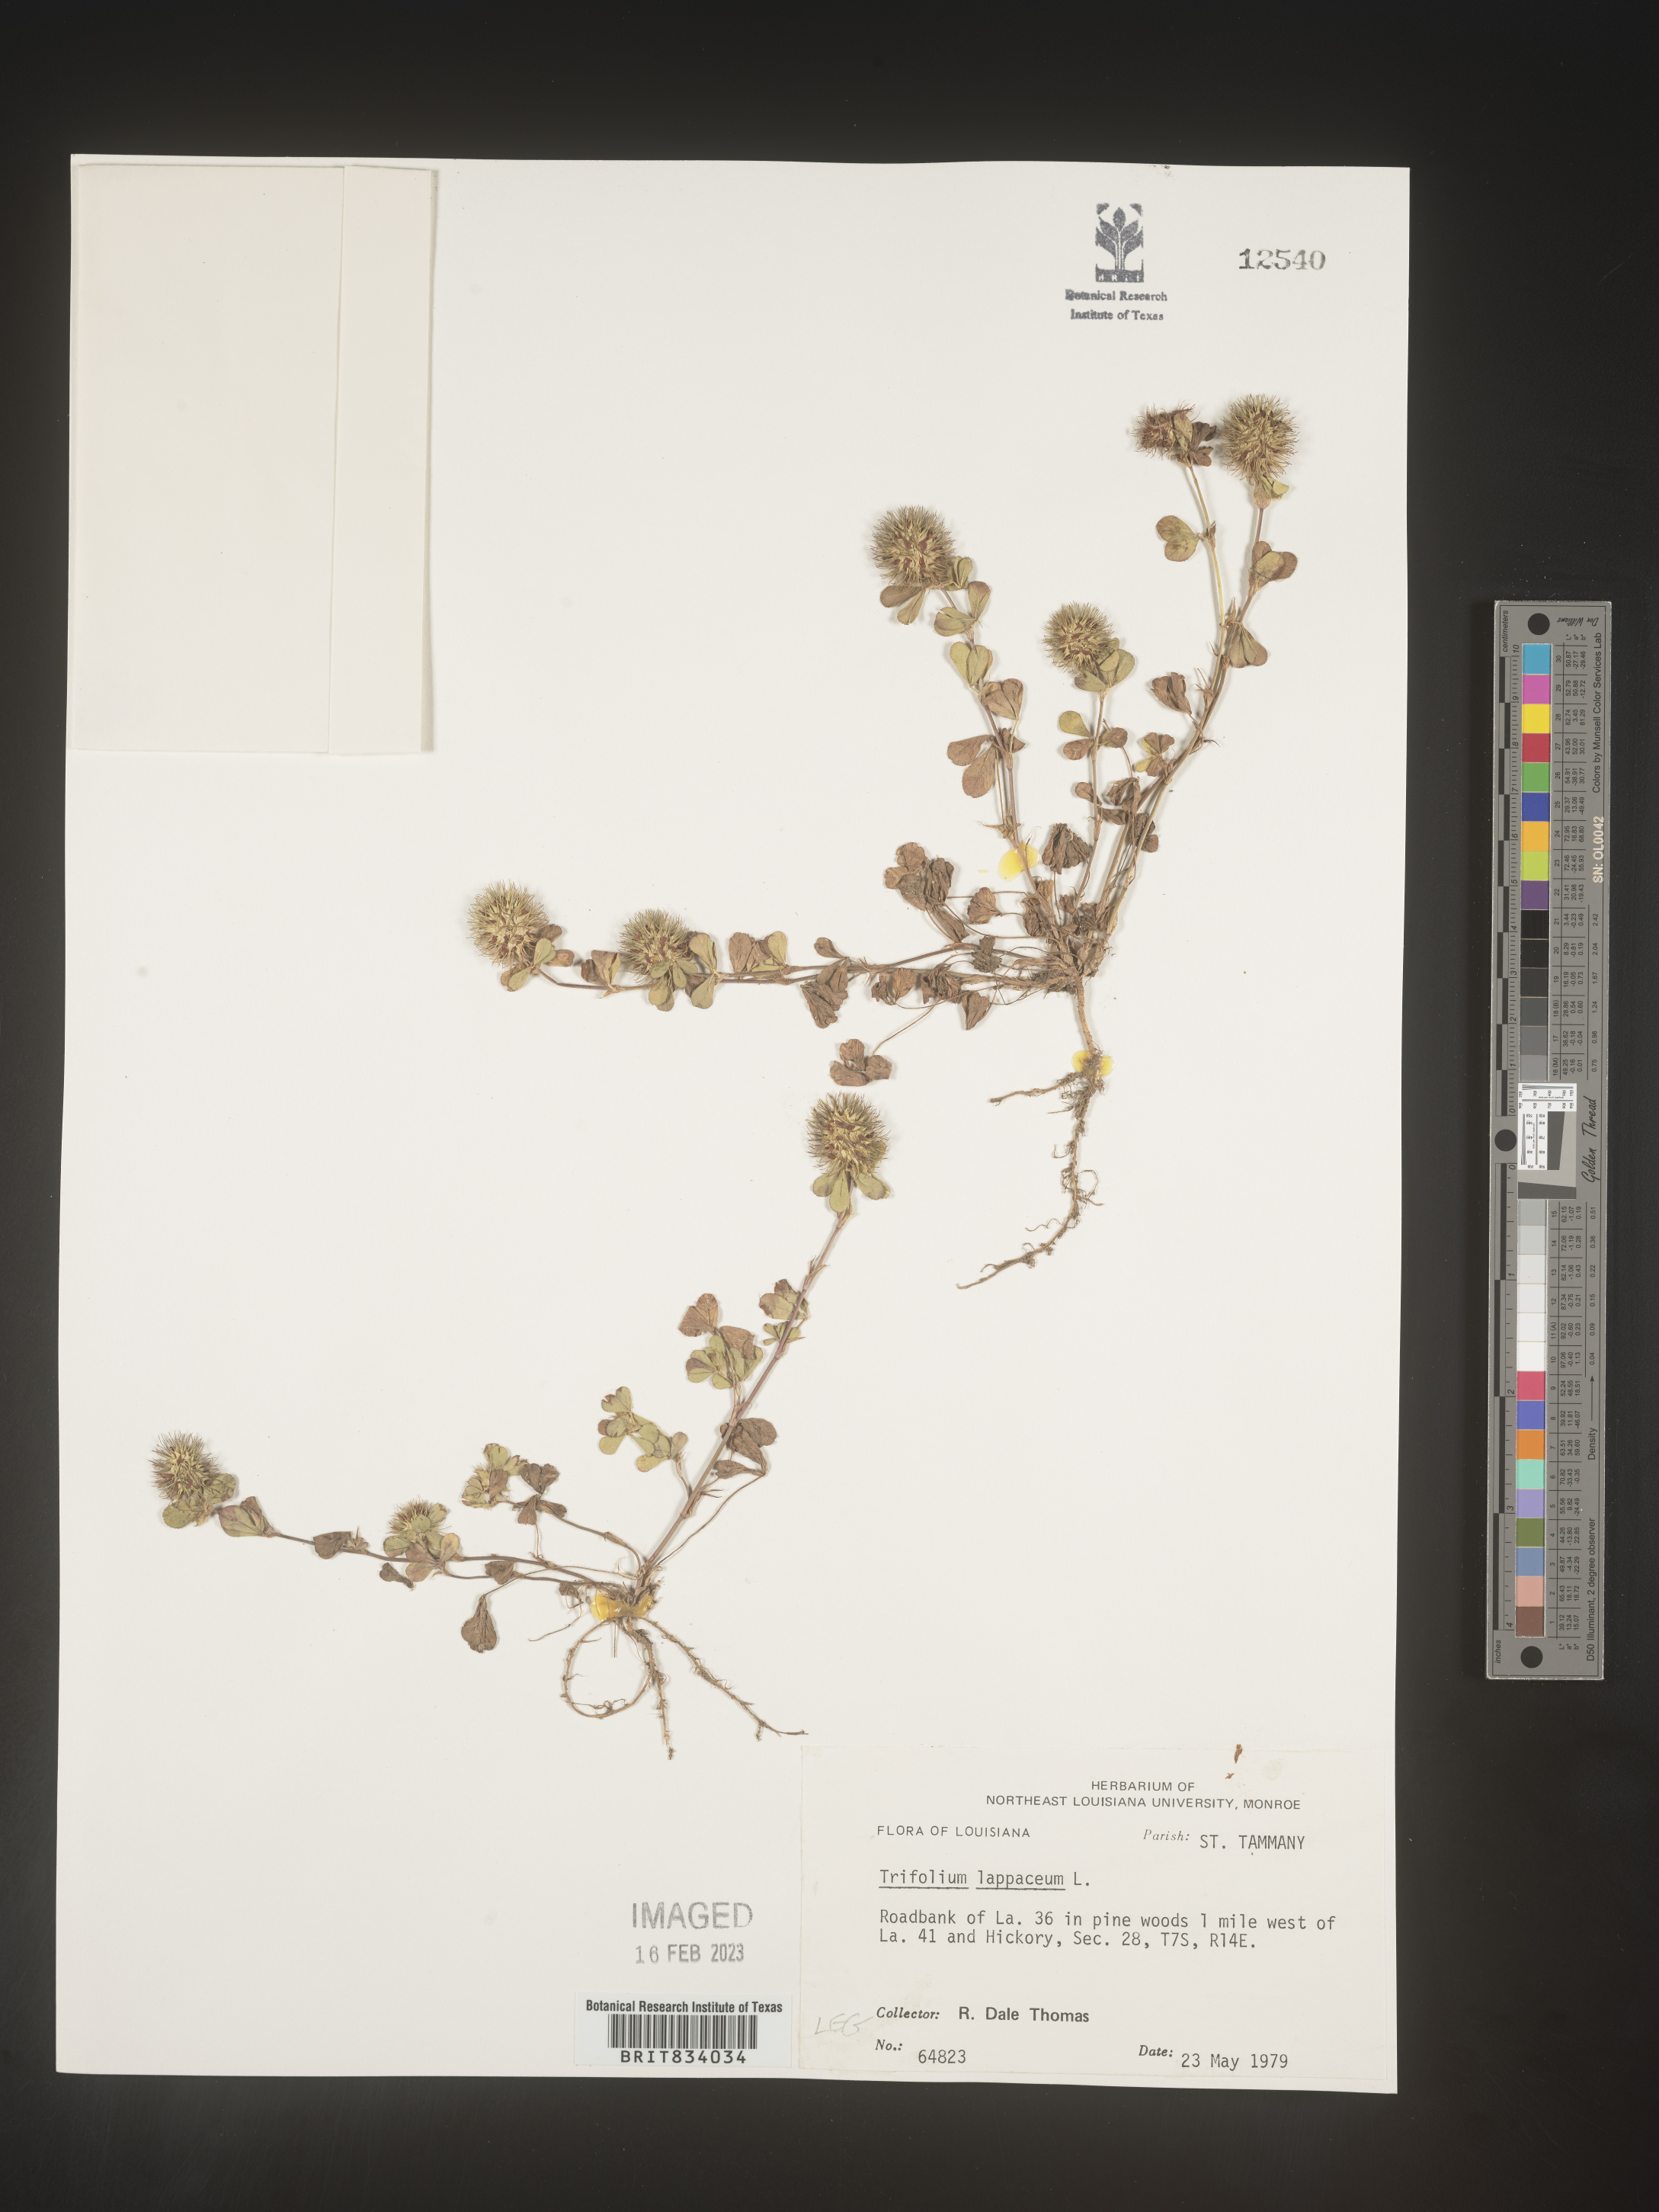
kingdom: Plantae
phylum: Tracheophyta
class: Magnoliopsida
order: Fabales
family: Fabaceae
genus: Trifolium
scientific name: Trifolium
